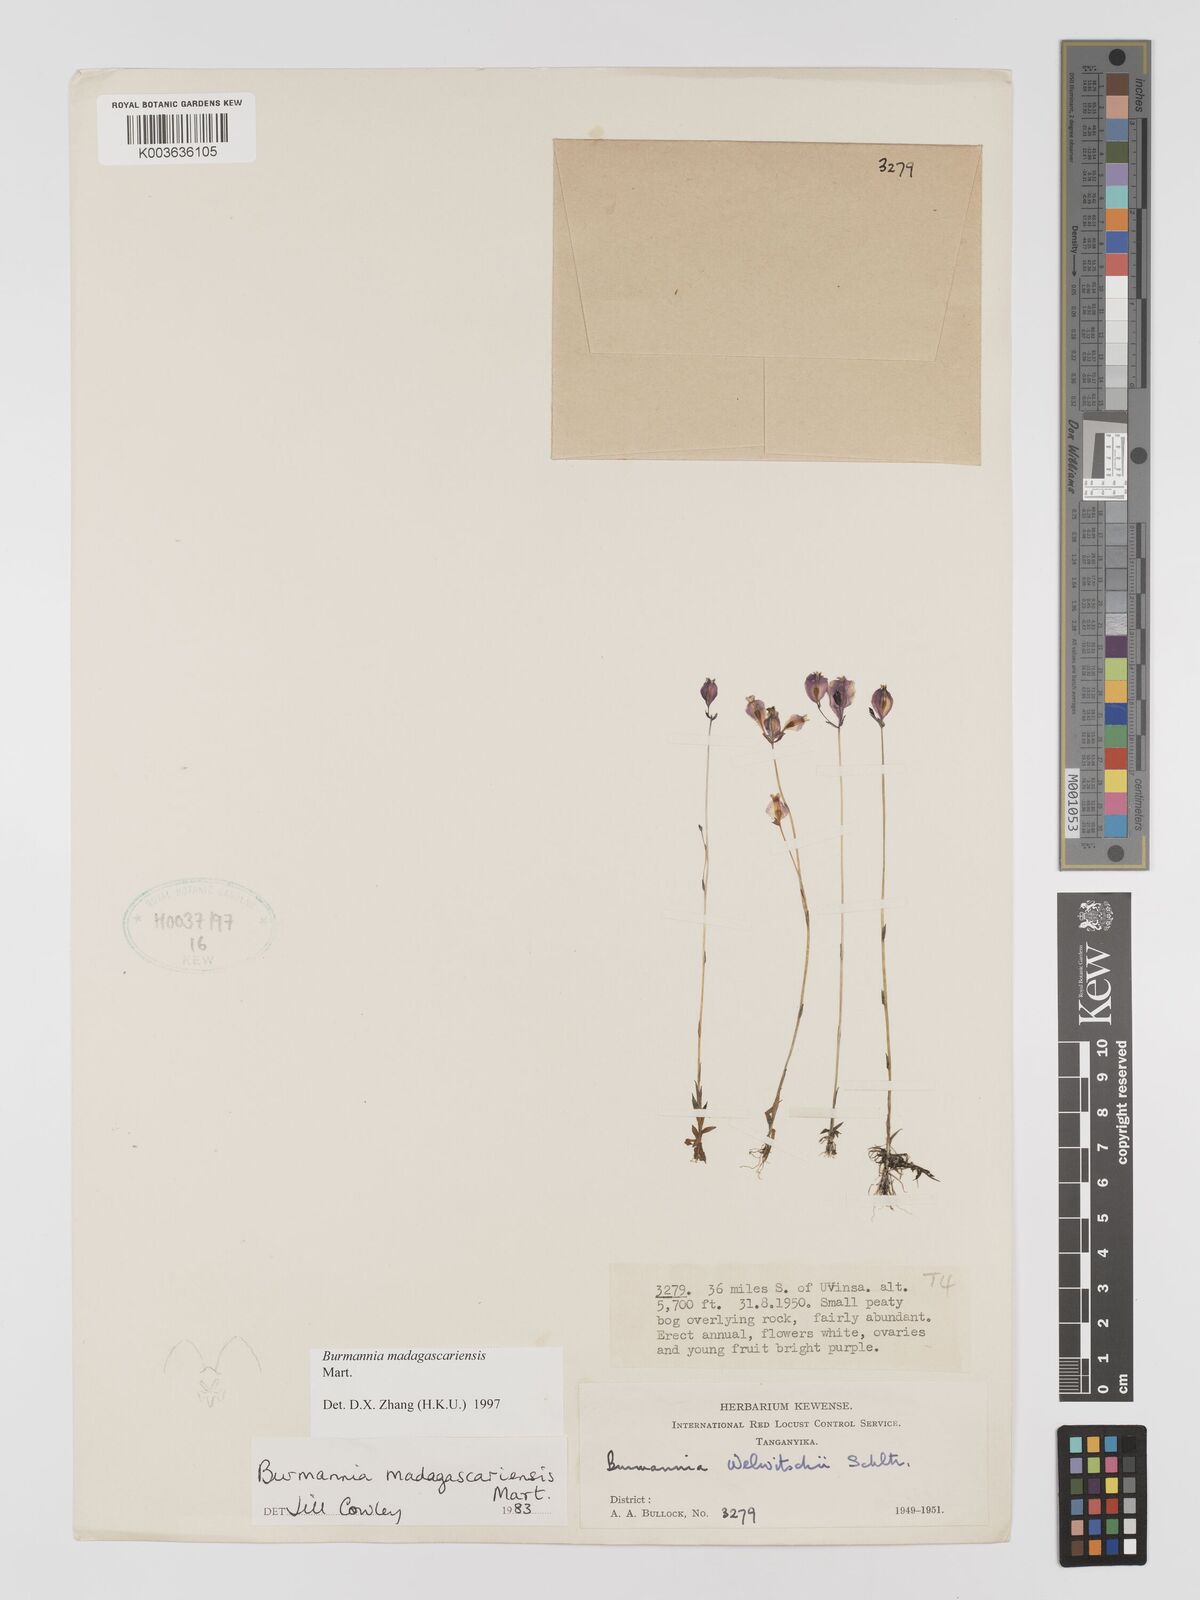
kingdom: Plantae
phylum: Tracheophyta
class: Liliopsida
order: Dioscoreales
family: Burmanniaceae
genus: Burmannia
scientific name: Burmannia madagascariensis
